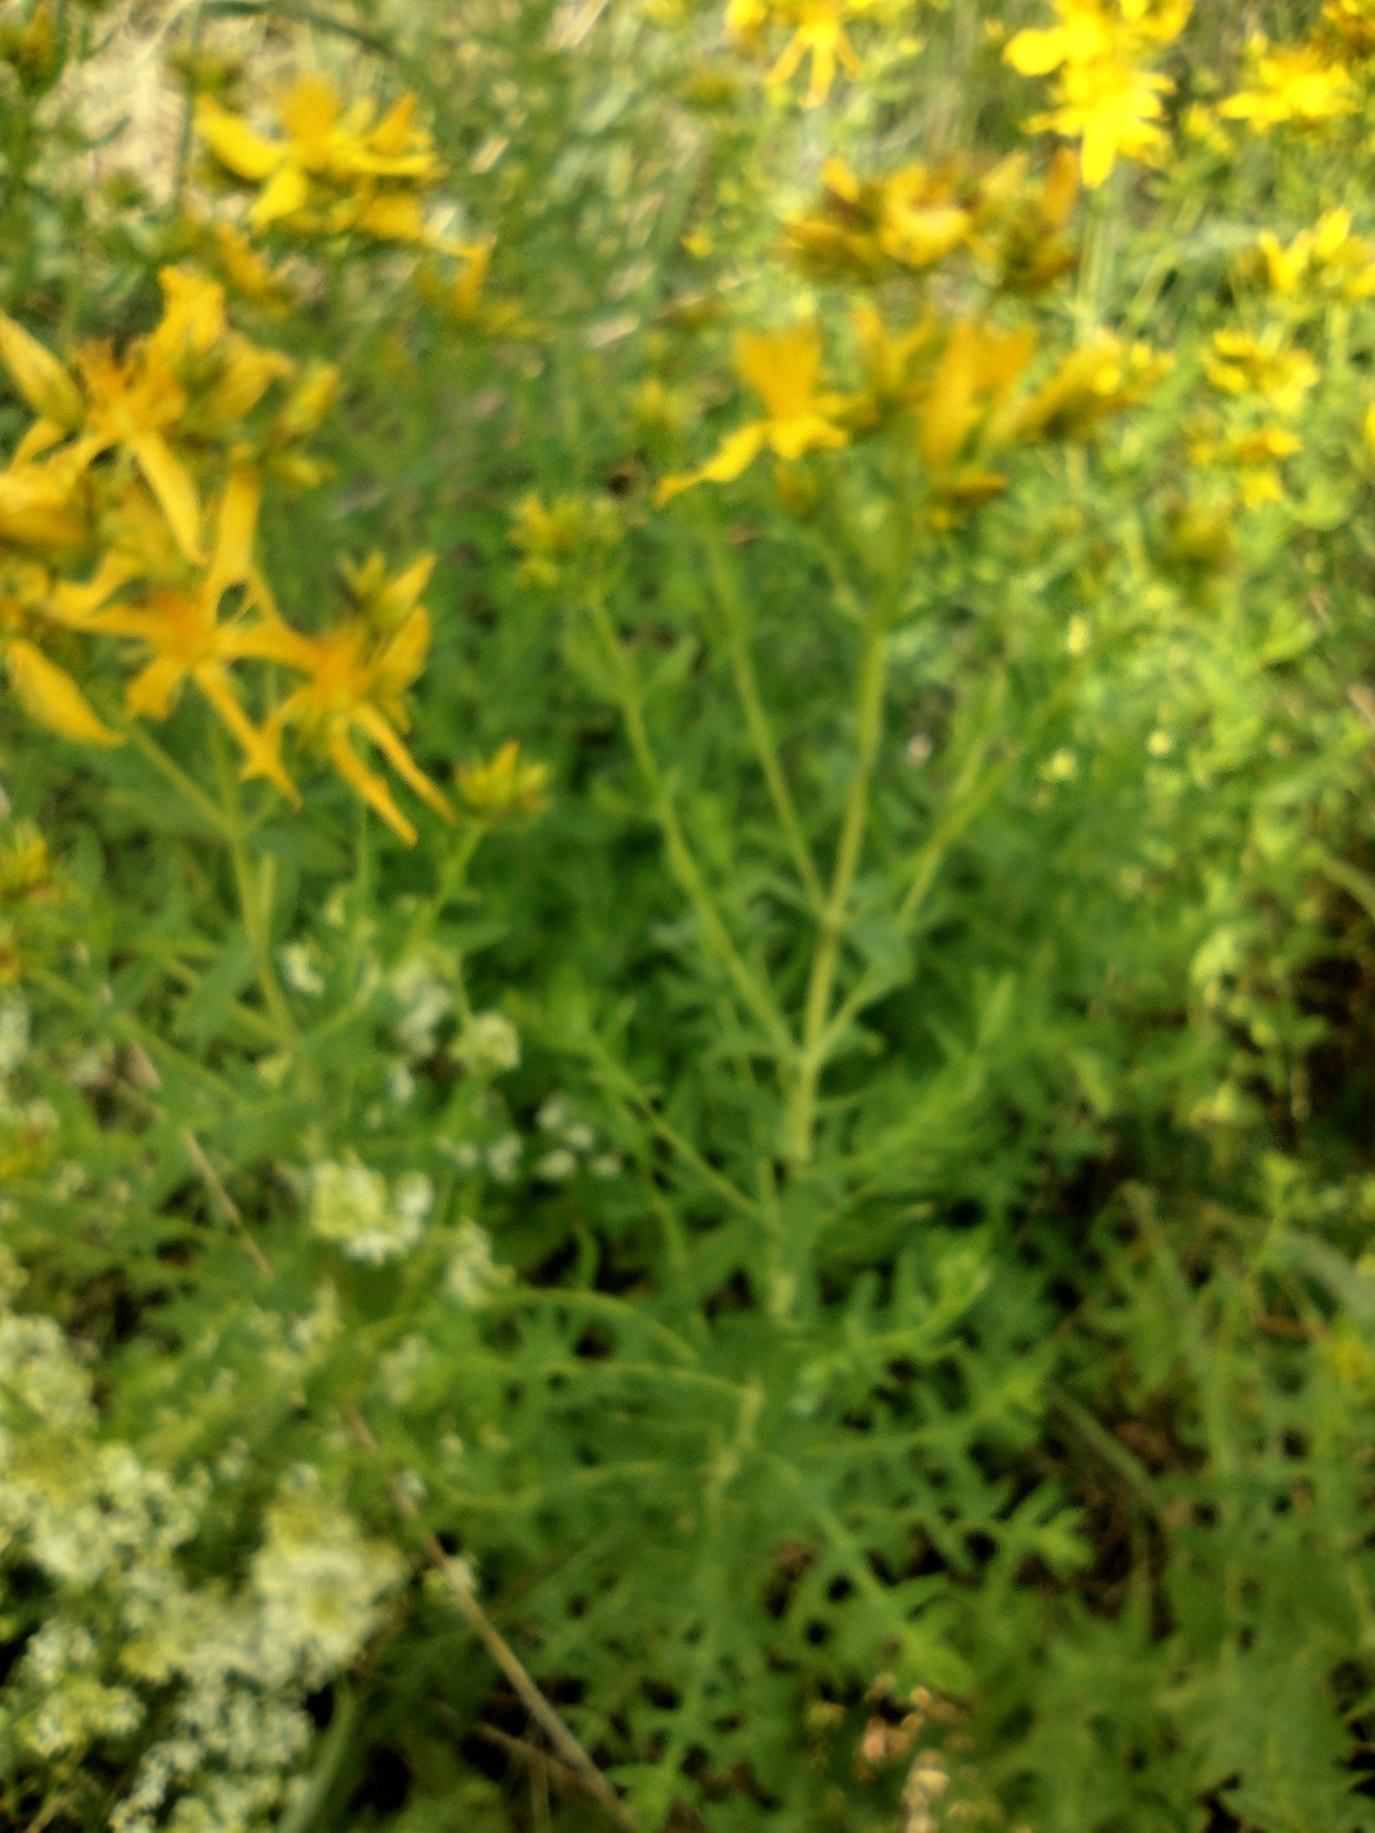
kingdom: Plantae
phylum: Tracheophyta
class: Magnoliopsida
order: Malpighiales
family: Hypericaceae
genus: Hypericum
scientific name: Hypericum perforatum
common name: Prikbladet perikon
